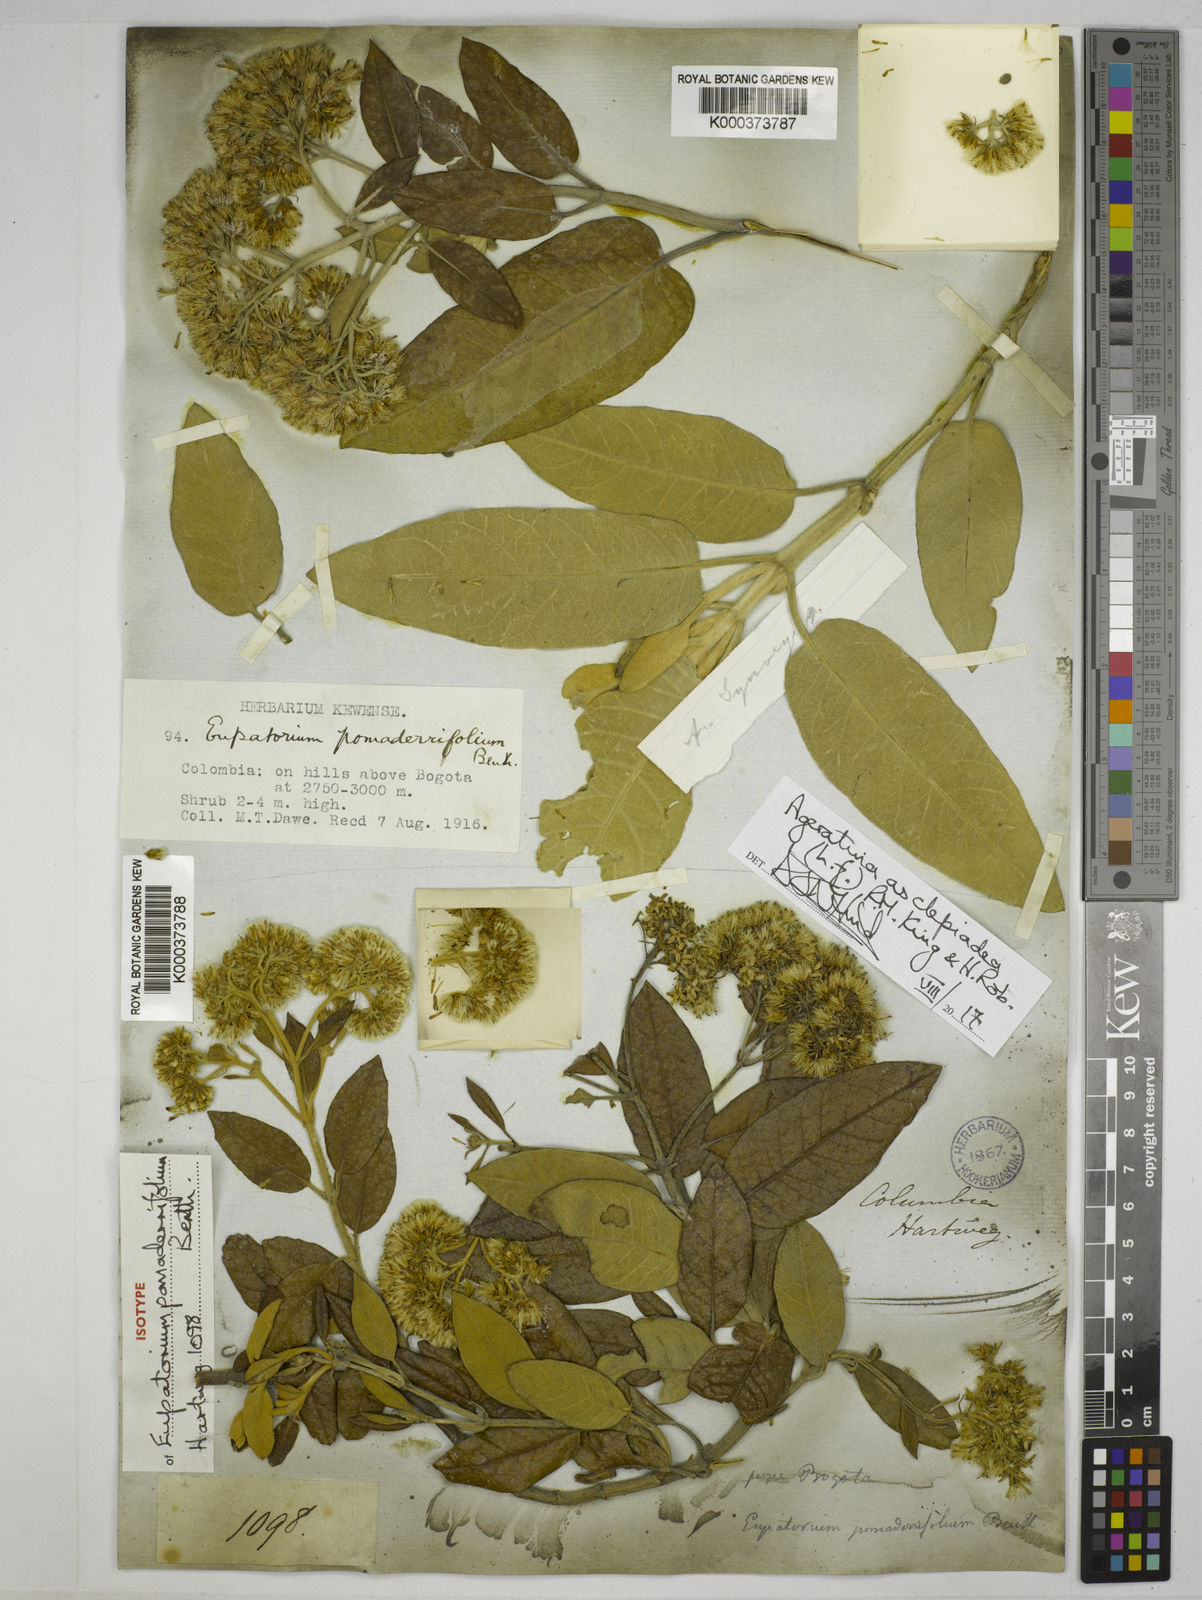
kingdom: Plantae
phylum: Tracheophyta
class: Magnoliopsida
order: Asterales
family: Asteraceae
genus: Ageratina
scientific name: Ageratina asclepiadea
